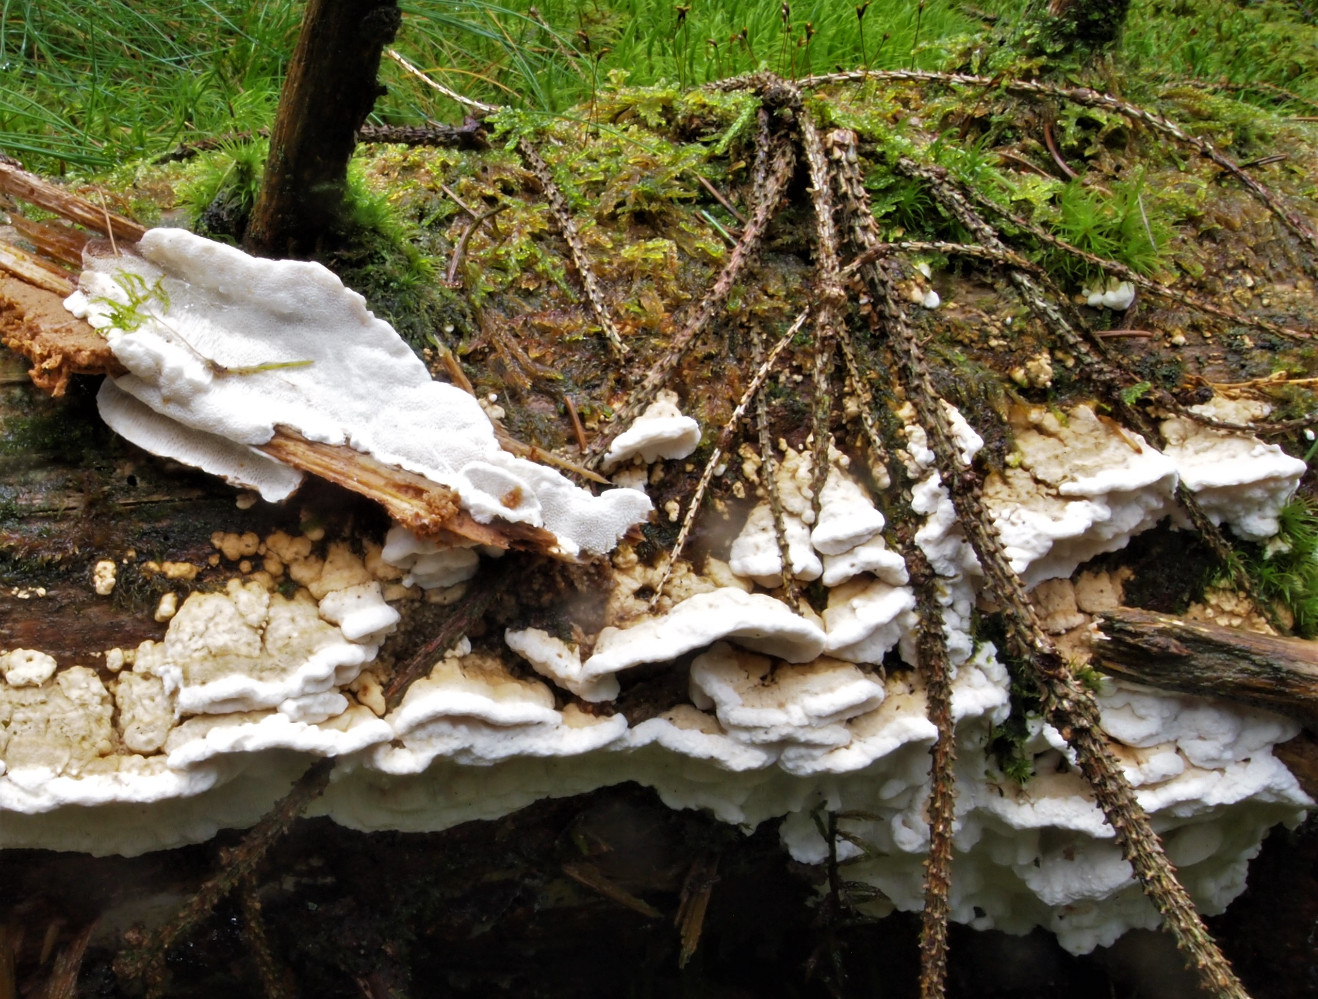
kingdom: Fungi
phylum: Basidiomycota
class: Agaricomycetes
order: Polyporales
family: Fomitopsidaceae
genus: Neoantrodia
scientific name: Neoantrodia serialis
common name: række-sejporesvamp
